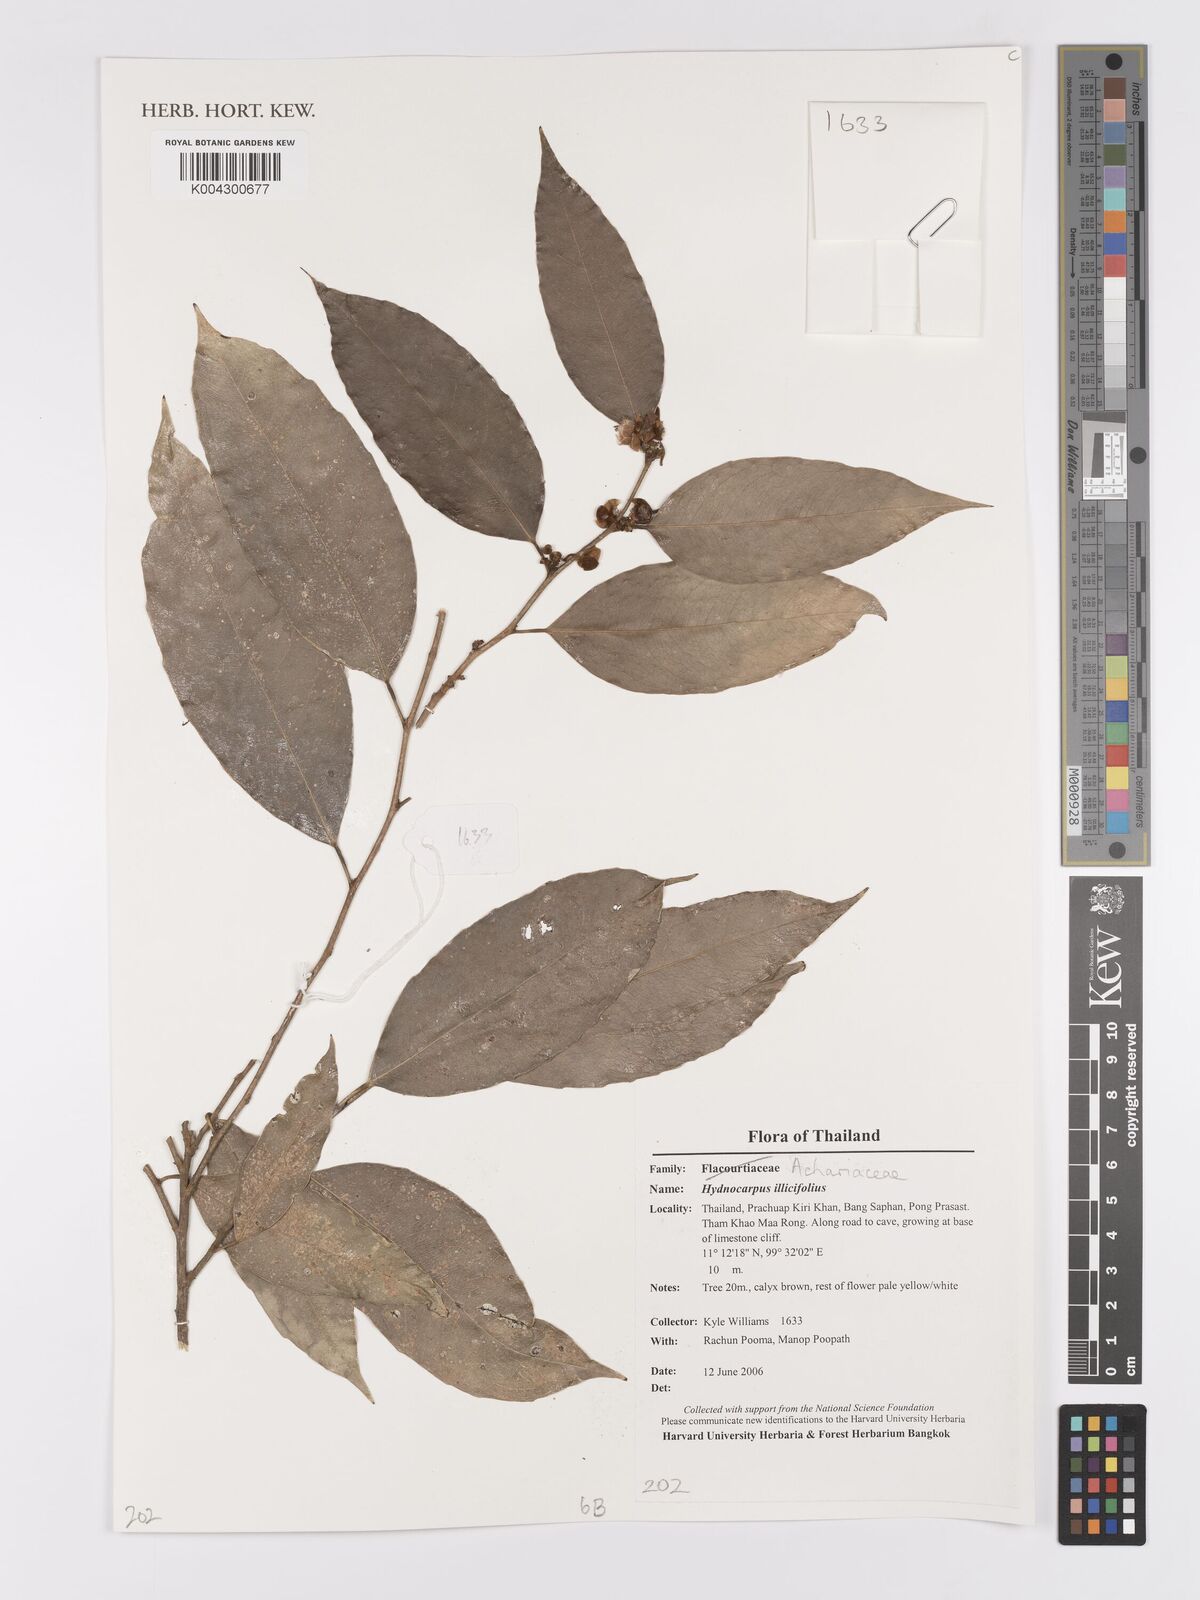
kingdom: Plantae
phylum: Tracheophyta
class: Magnoliopsida
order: Malpighiales
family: Achariaceae
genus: Hydnocarpus
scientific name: Hydnocarpus ilicifolius
